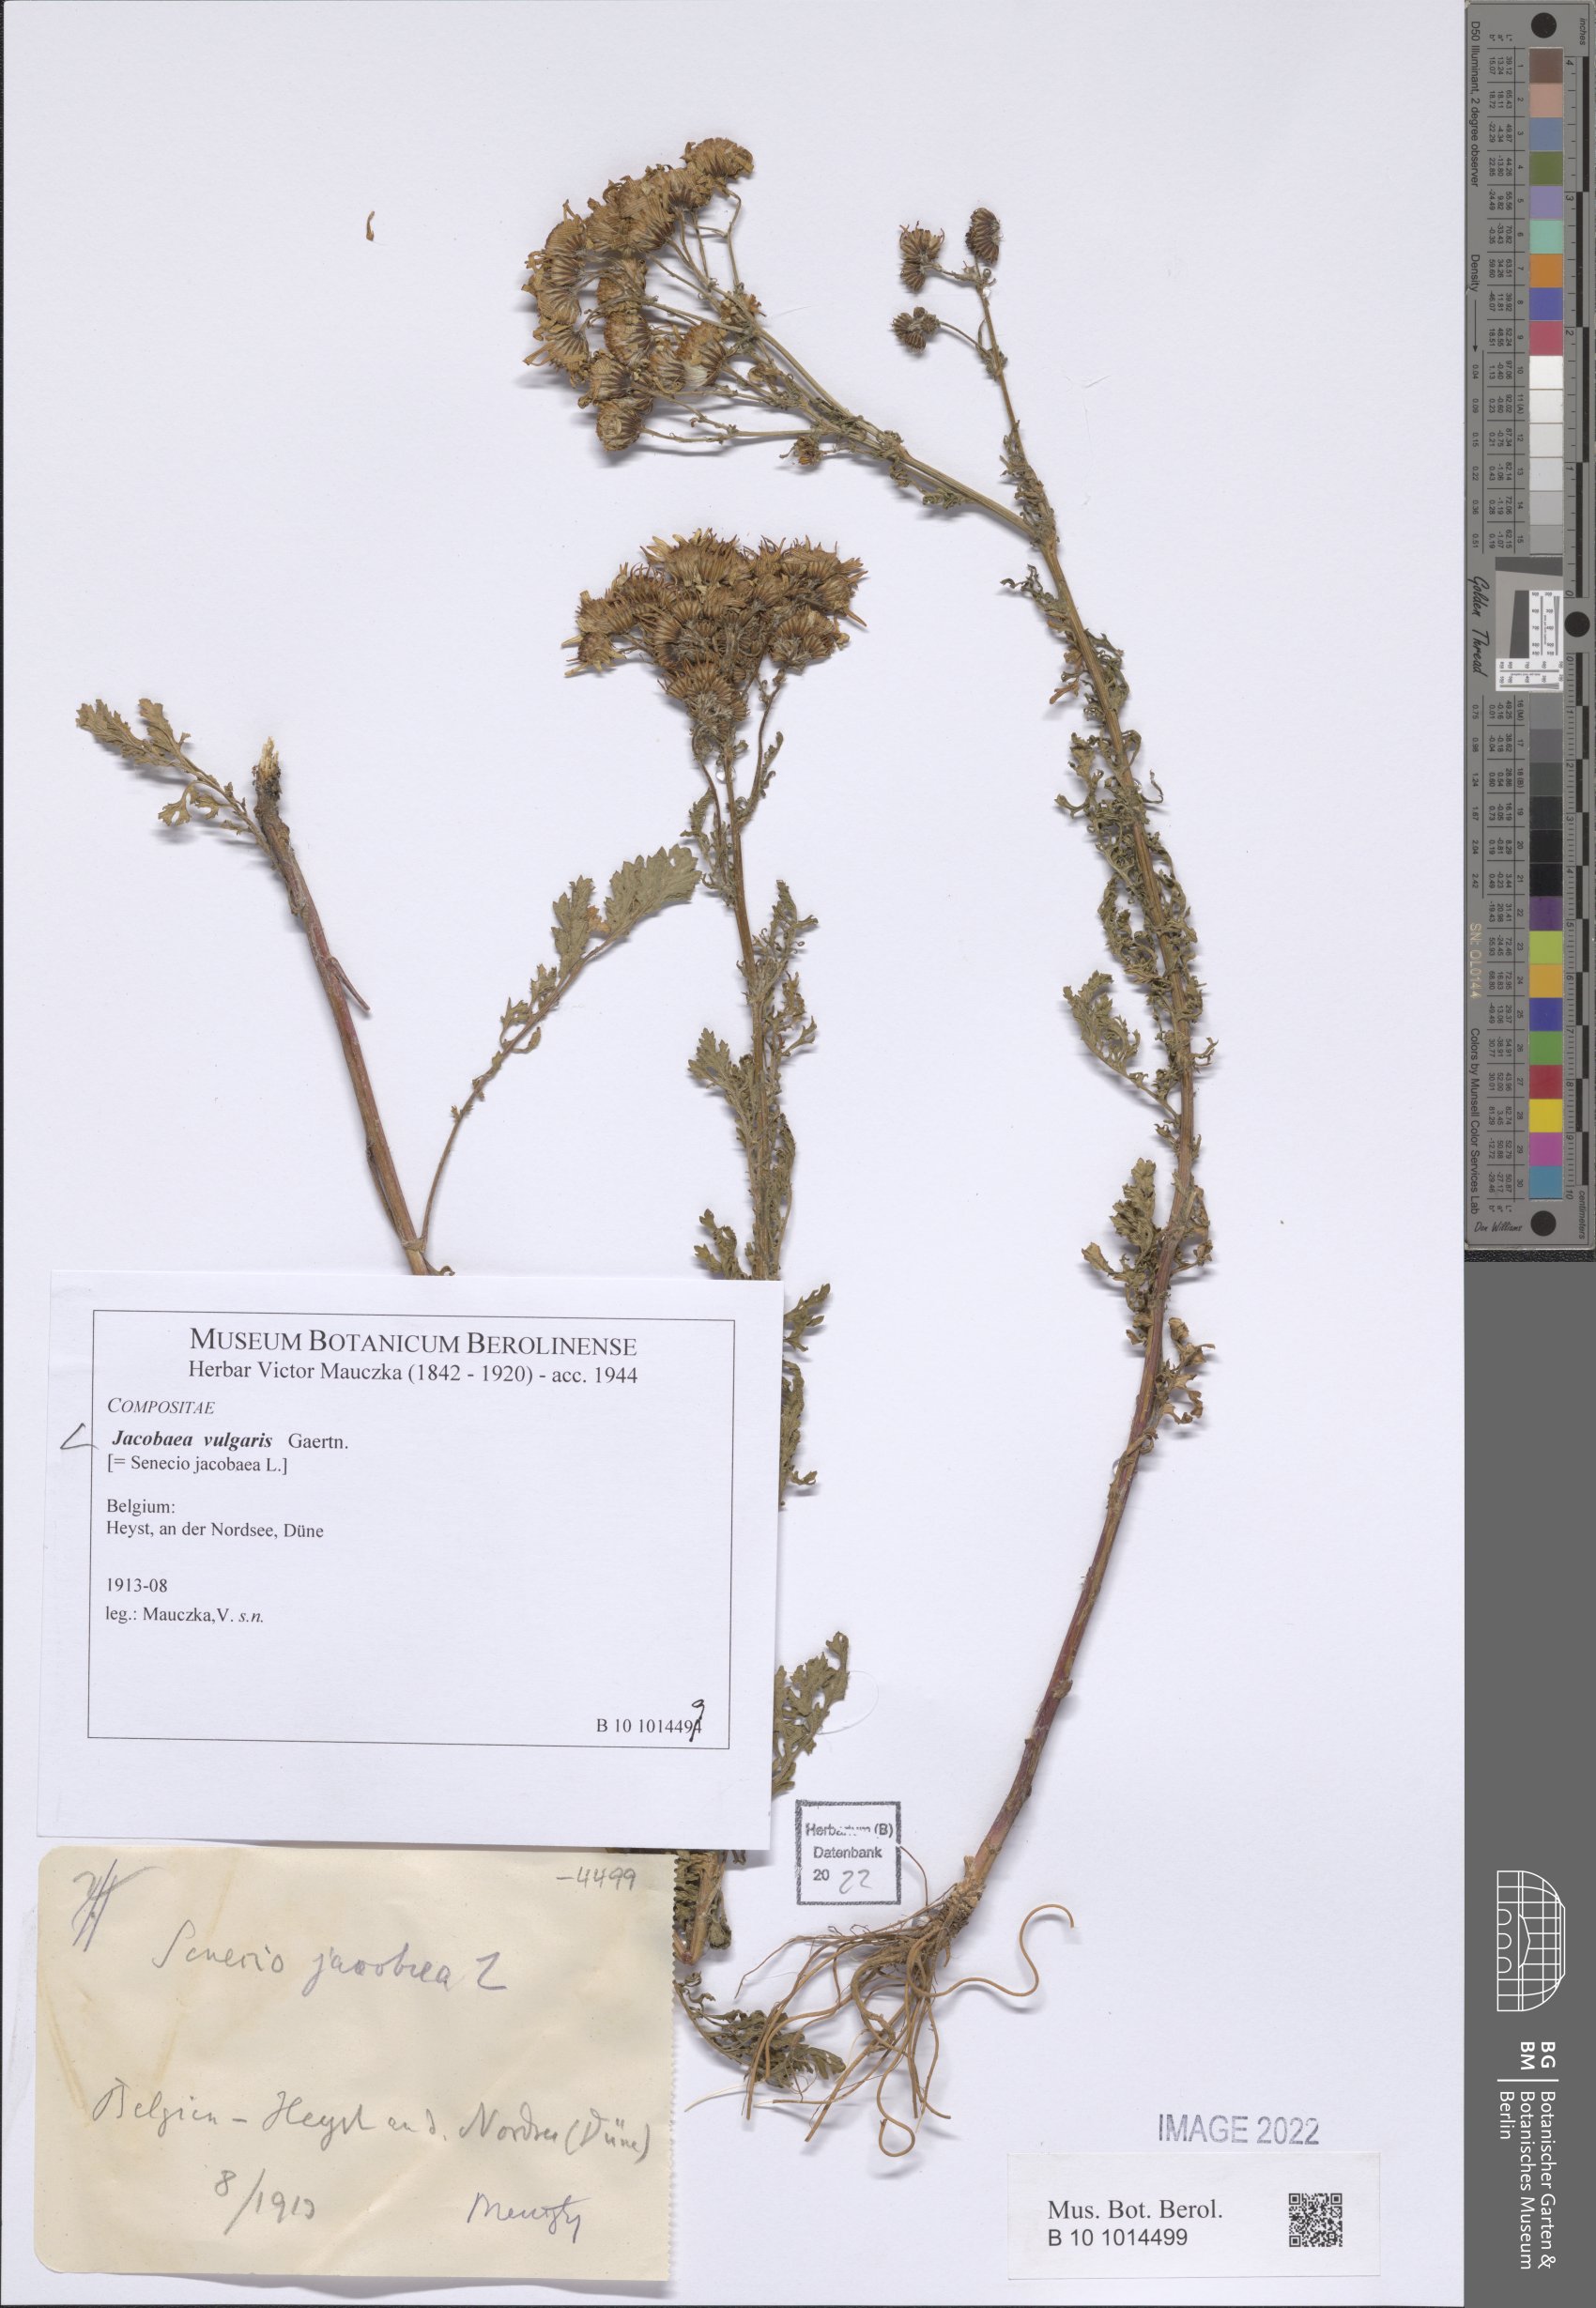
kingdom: Plantae
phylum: Tracheophyta
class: Magnoliopsida
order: Asterales
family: Asteraceae
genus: Jacobaea
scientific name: Jacobaea vulgaris
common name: Stinking willie
